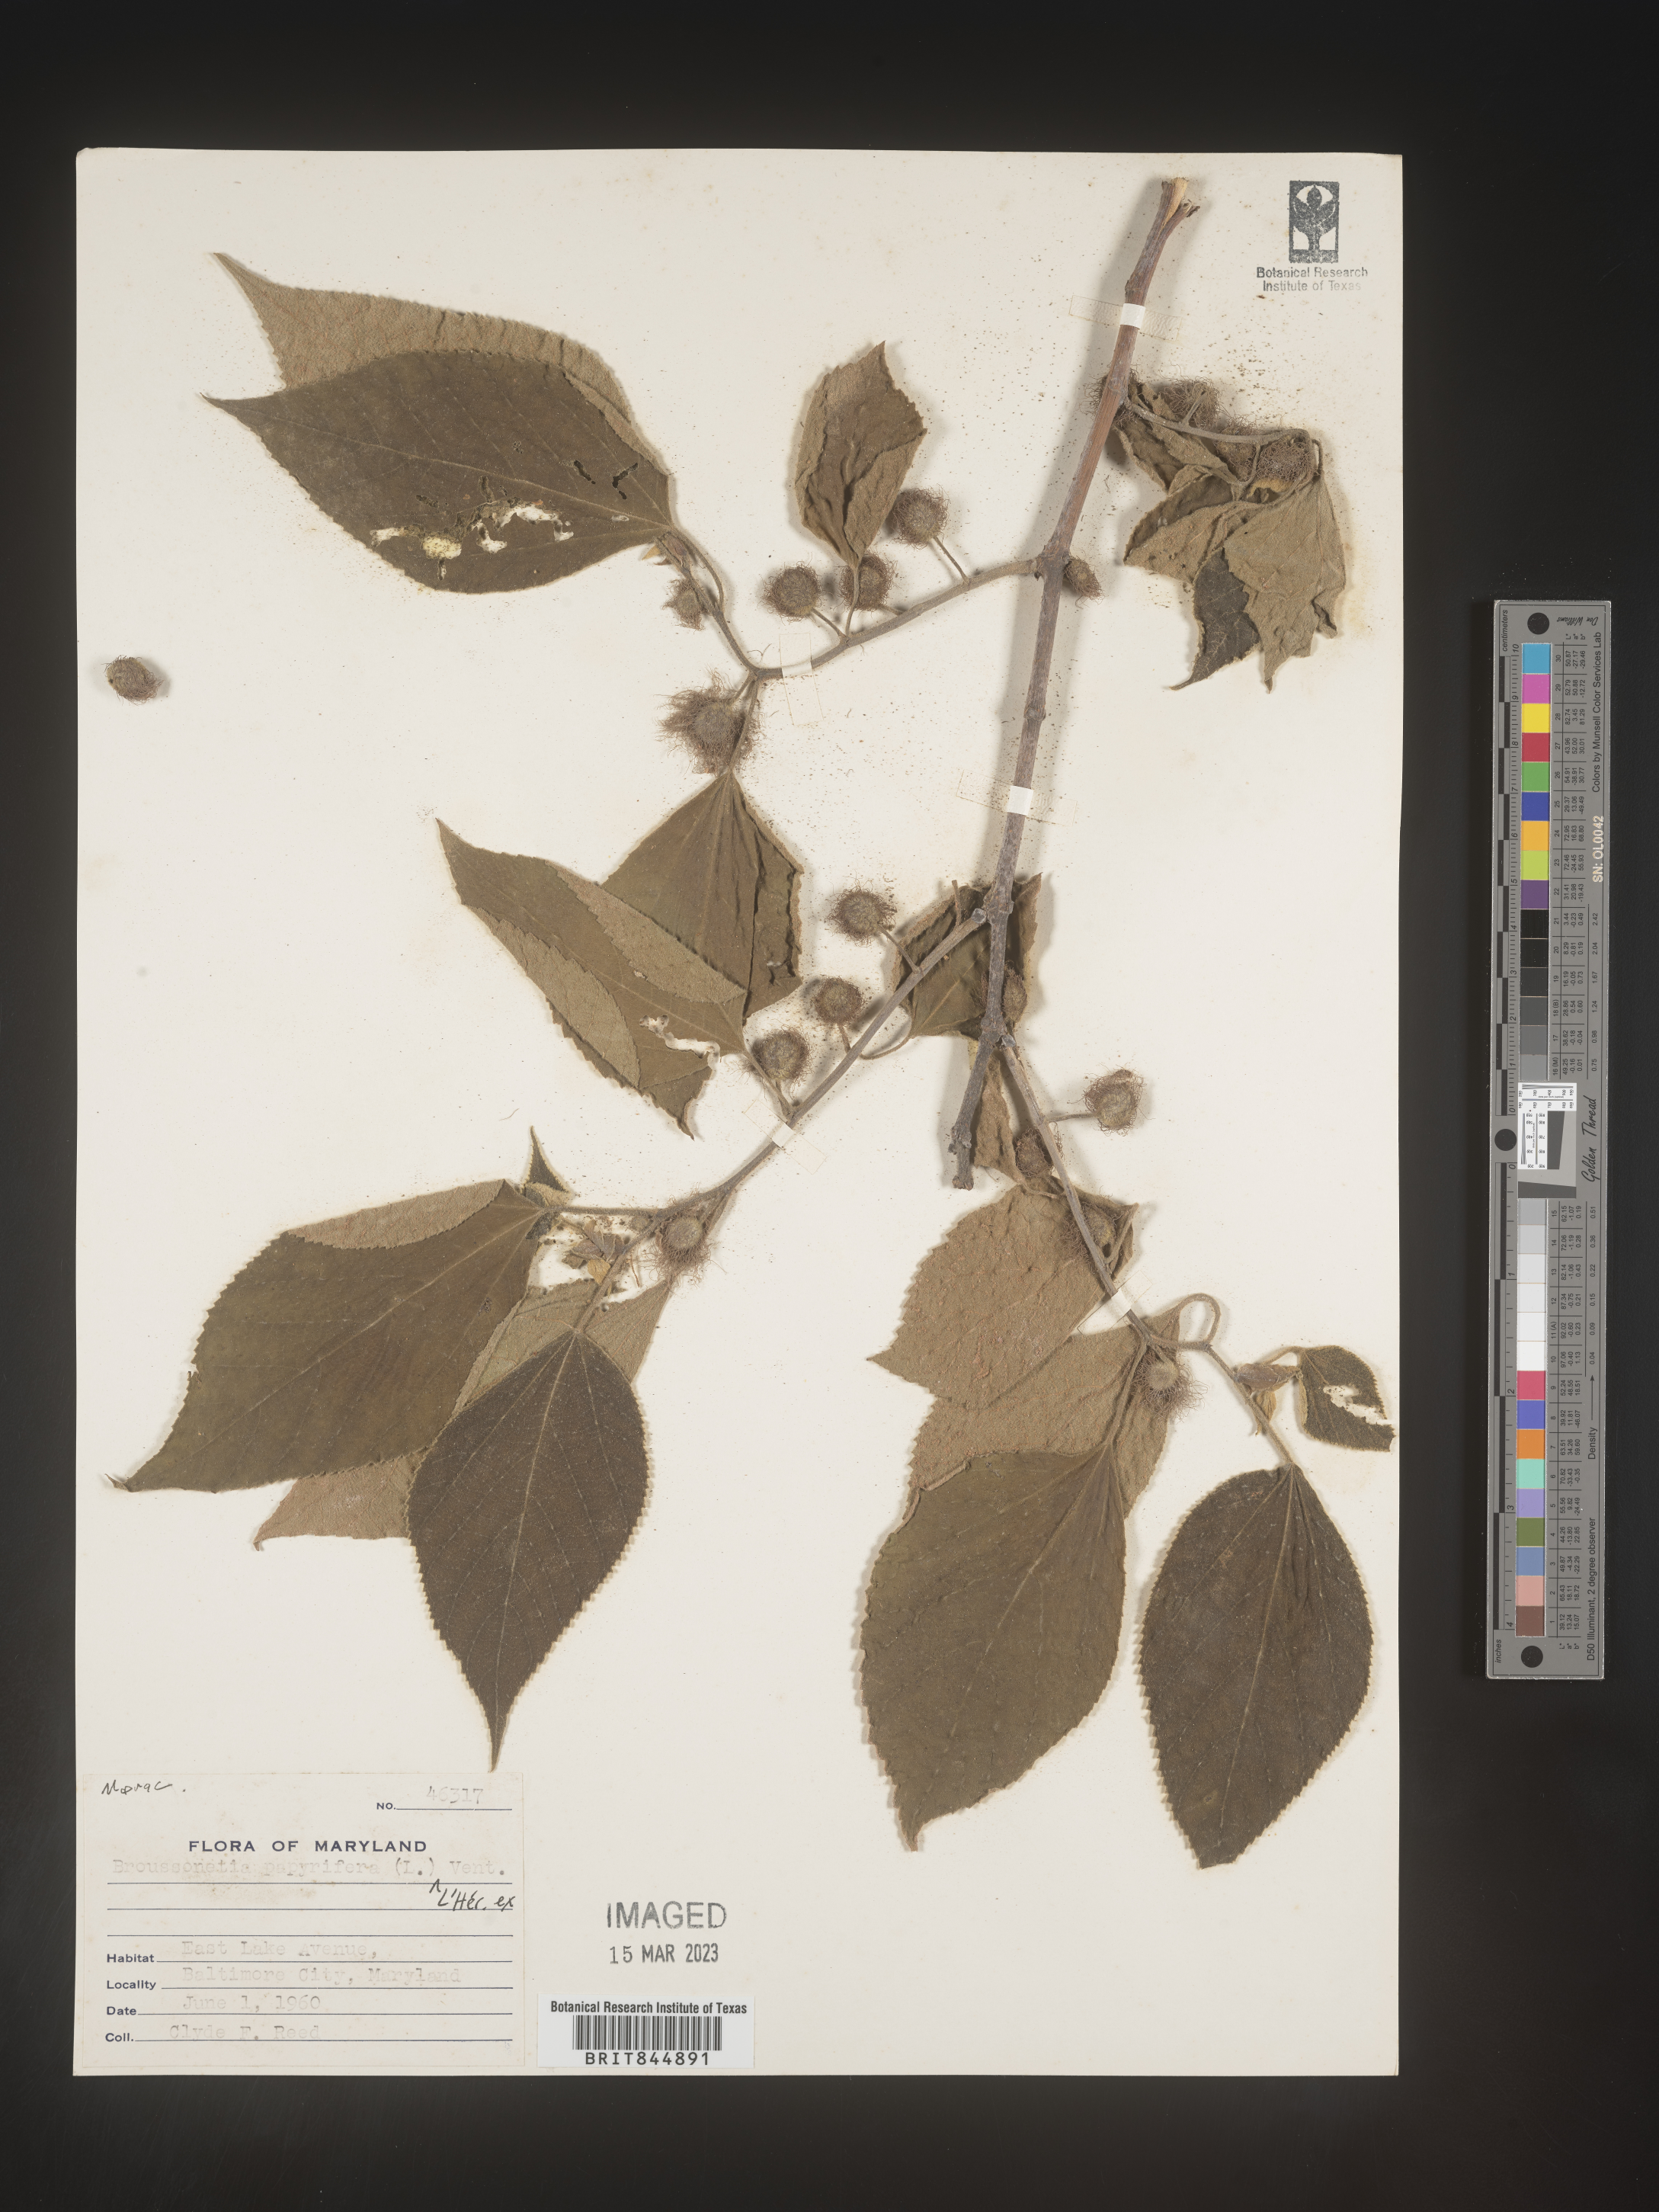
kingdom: Plantae
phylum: Tracheophyta
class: Magnoliopsida
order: Rosales
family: Moraceae
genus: Broussonetia
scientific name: Broussonetia
